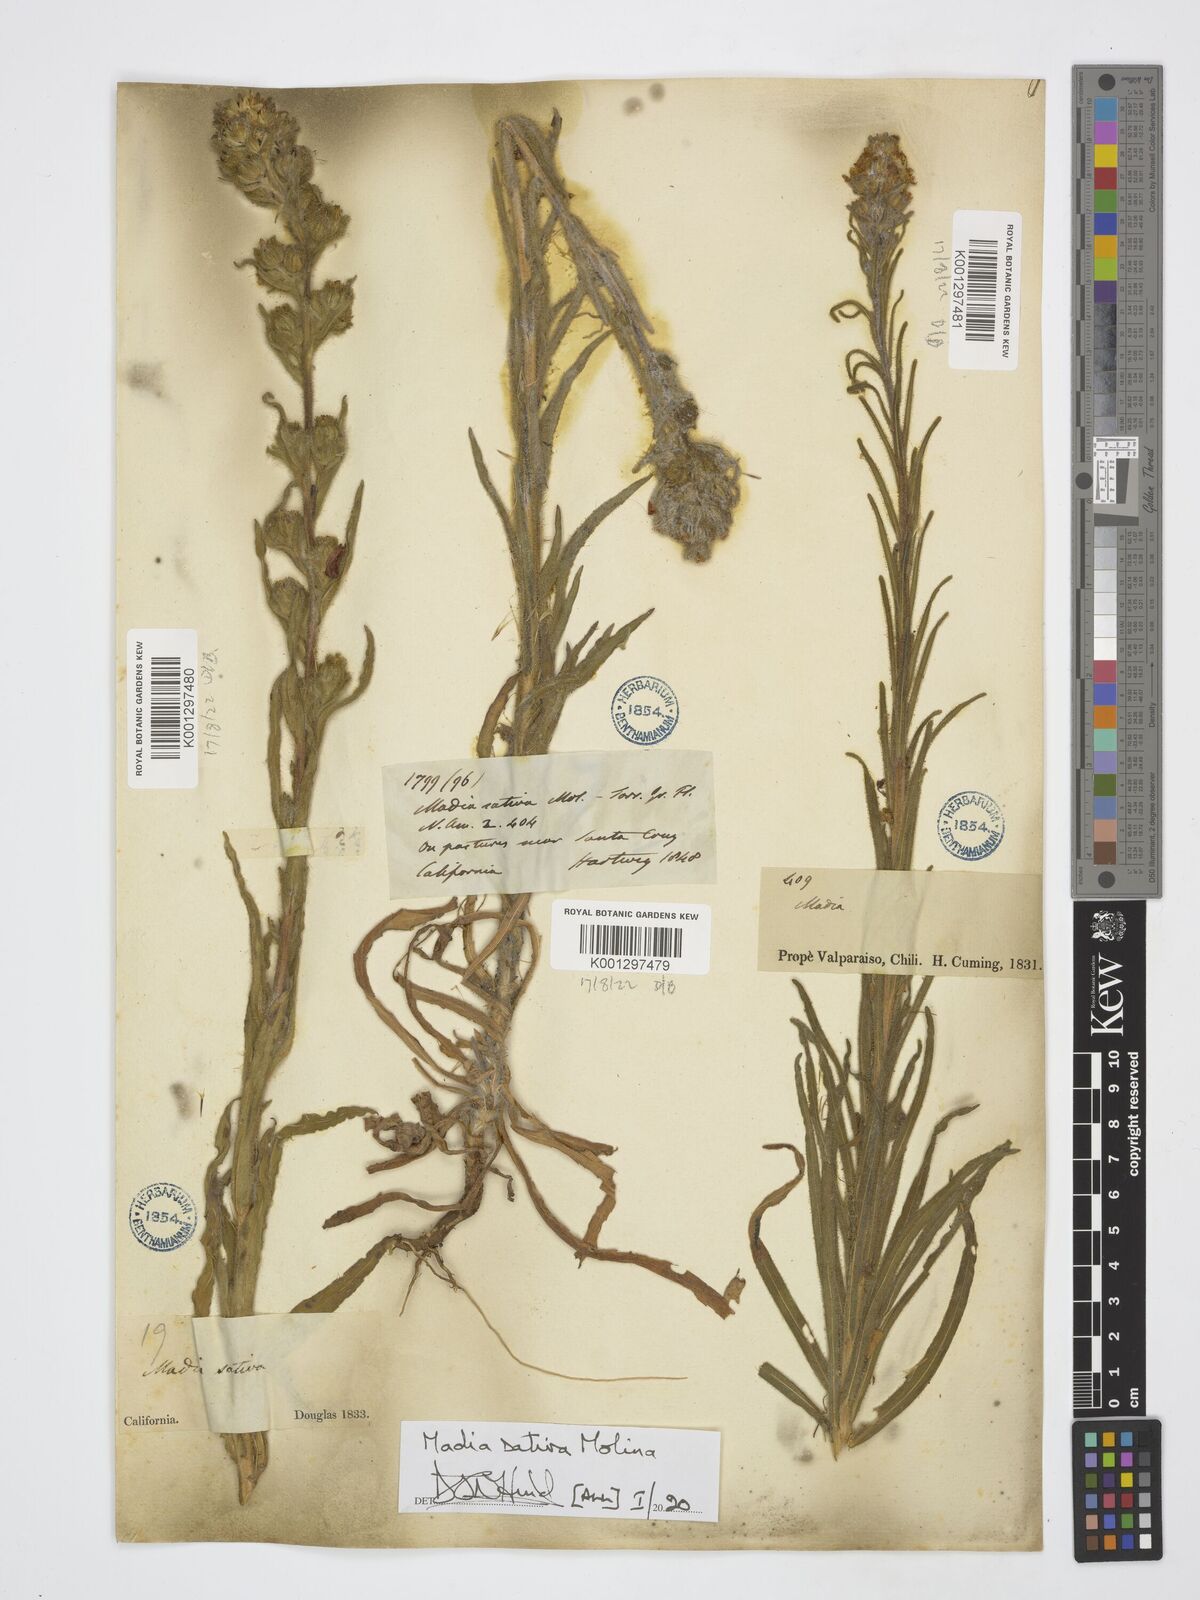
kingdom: Plantae
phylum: Tracheophyta
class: Magnoliopsida
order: Asterales
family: Asteraceae
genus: Madia
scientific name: Madia sativa
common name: Coast tarweed
